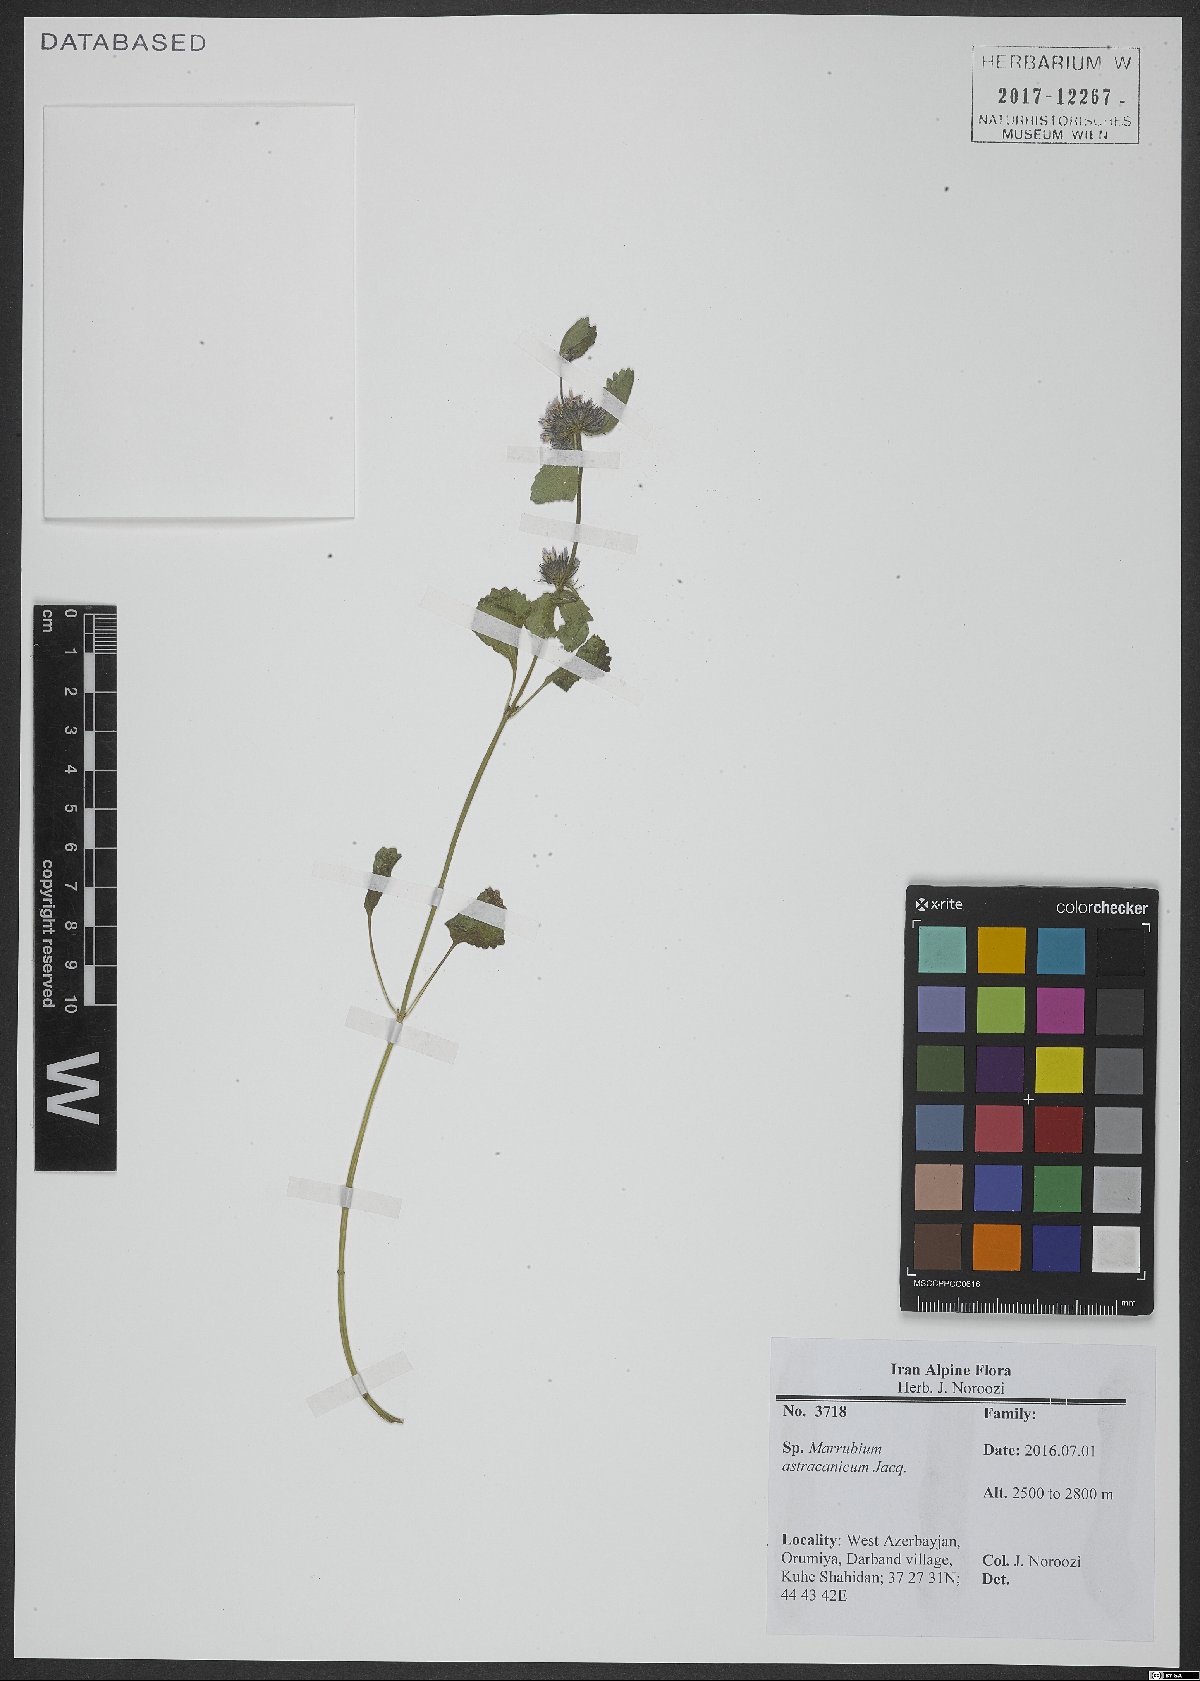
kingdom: Plantae
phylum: Tracheophyta
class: Magnoliopsida
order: Lamiales
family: Lamiaceae
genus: Marrubium
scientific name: Marrubium astracanicum
